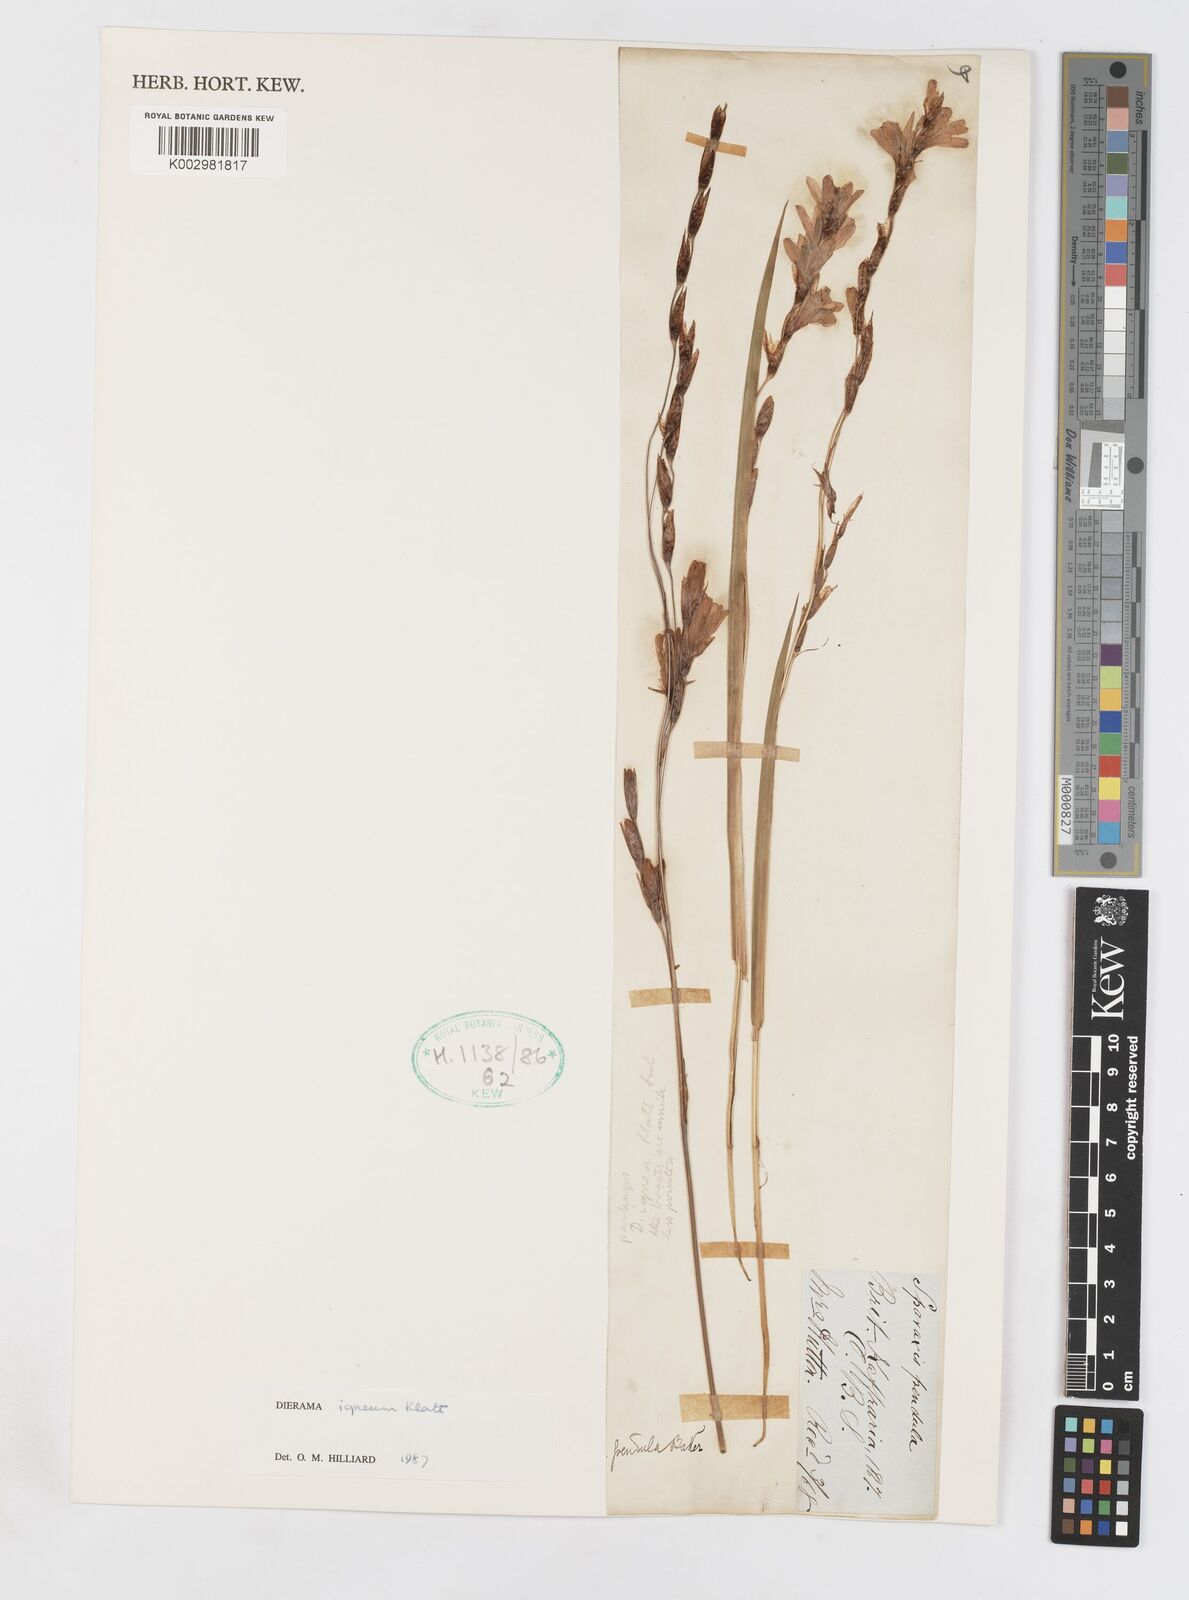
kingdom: Plantae
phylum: Tracheophyta
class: Liliopsida
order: Asparagales
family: Iridaceae
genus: Dierama
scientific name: Dierama igneum
